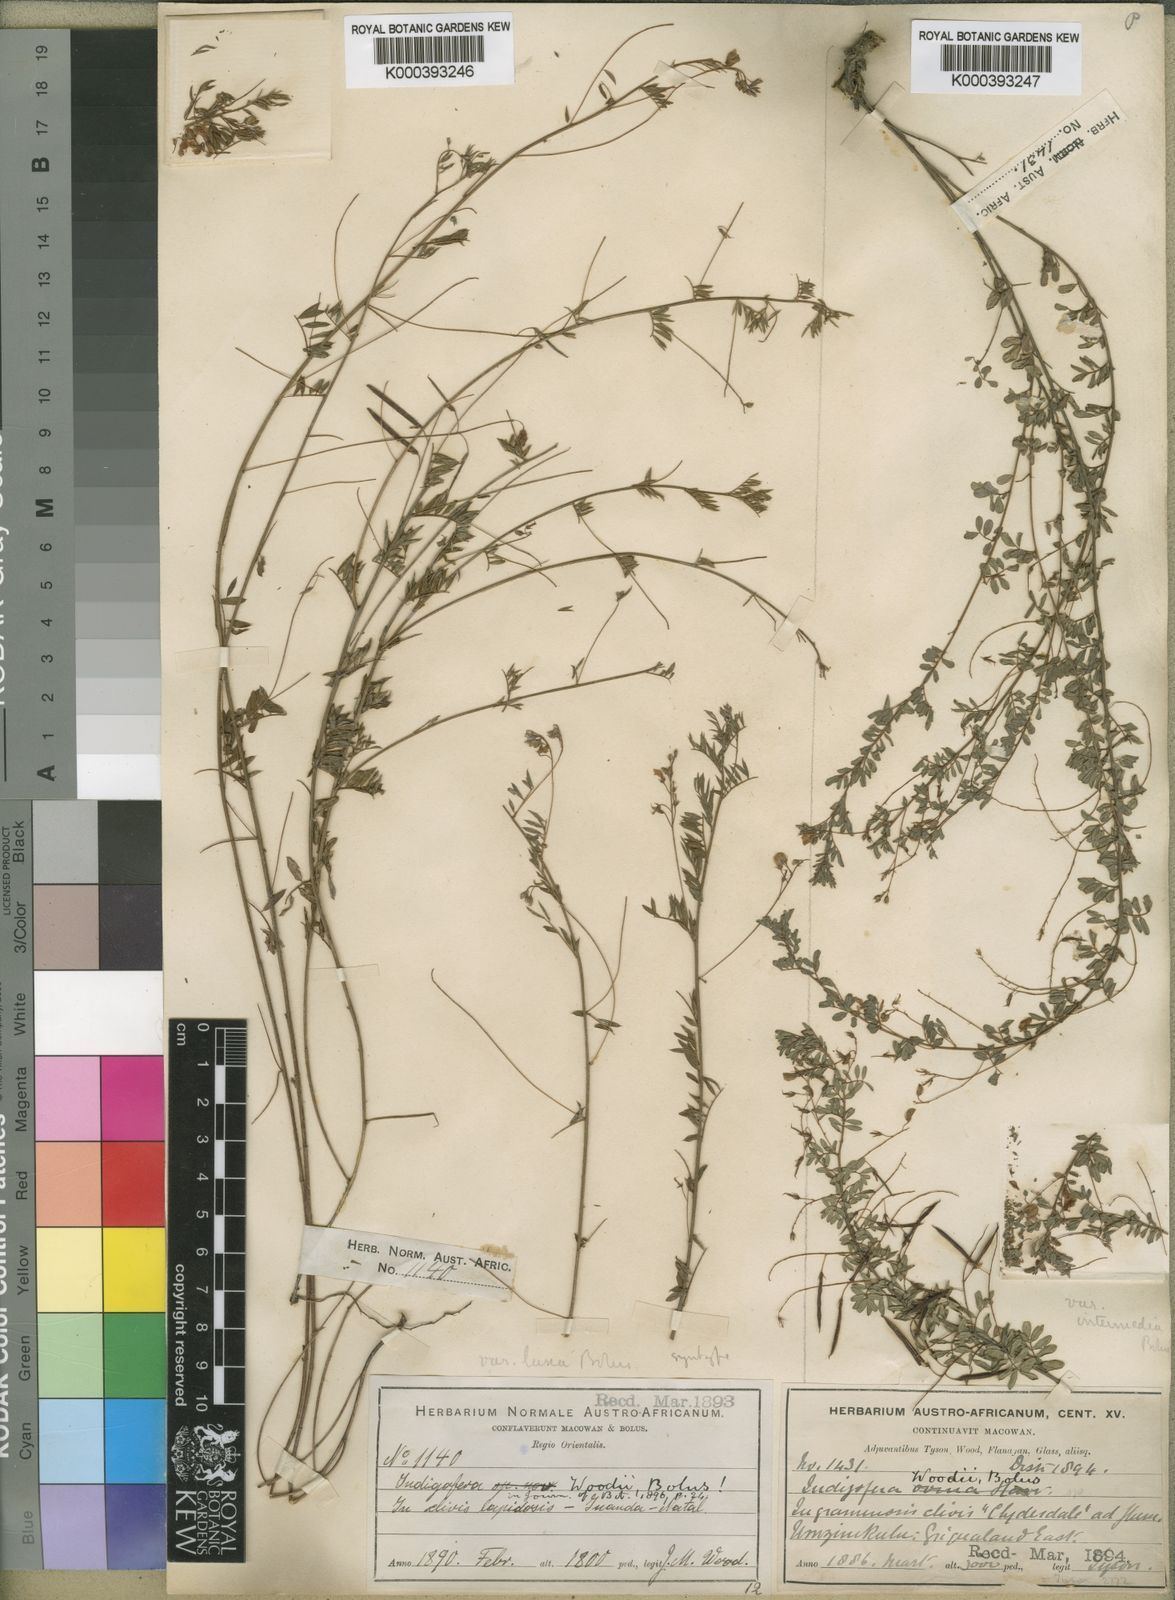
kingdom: Plantae
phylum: Tracheophyta
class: Magnoliopsida
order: Fabales
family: Fabaceae
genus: Indigofera
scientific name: Indigofera woodii
